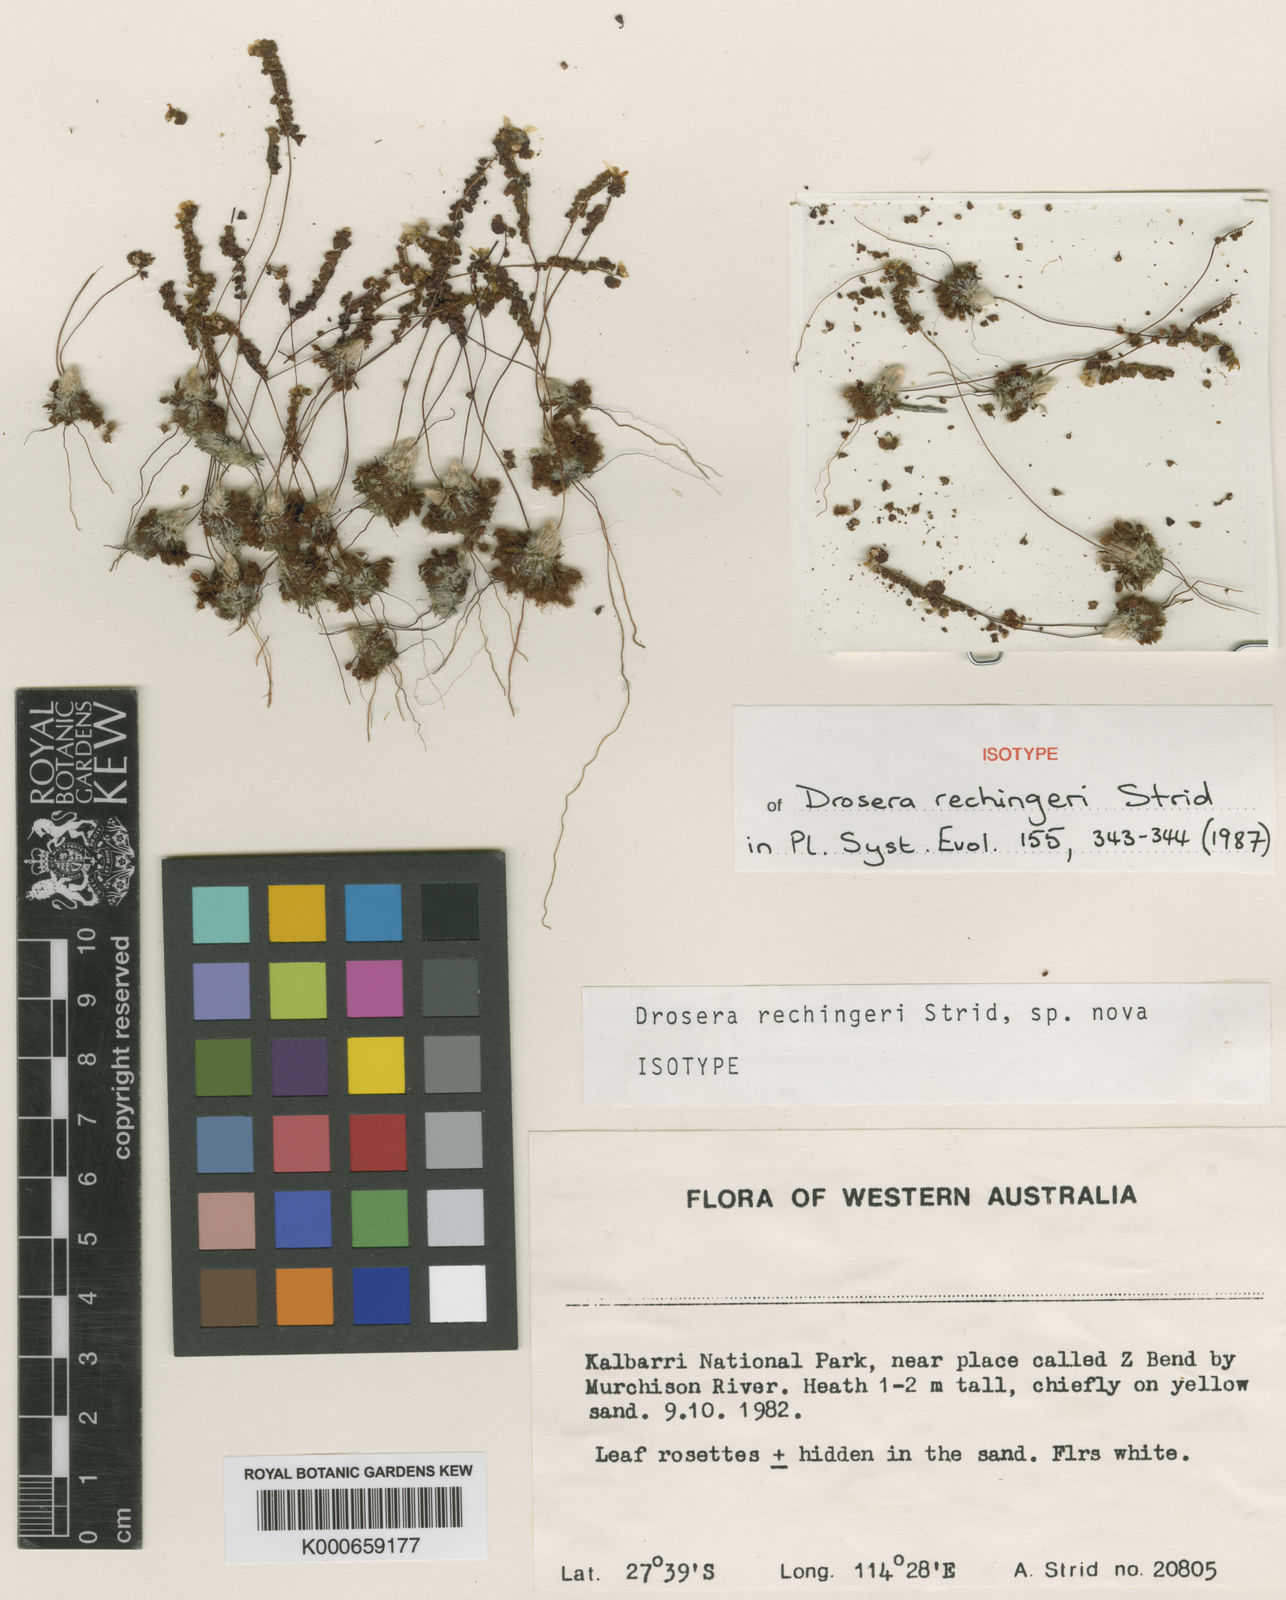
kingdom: Plantae
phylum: Tracheophyta
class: Magnoliopsida
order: Caryophyllales
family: Droseraceae
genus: Drosera
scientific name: Drosera rechingeri
